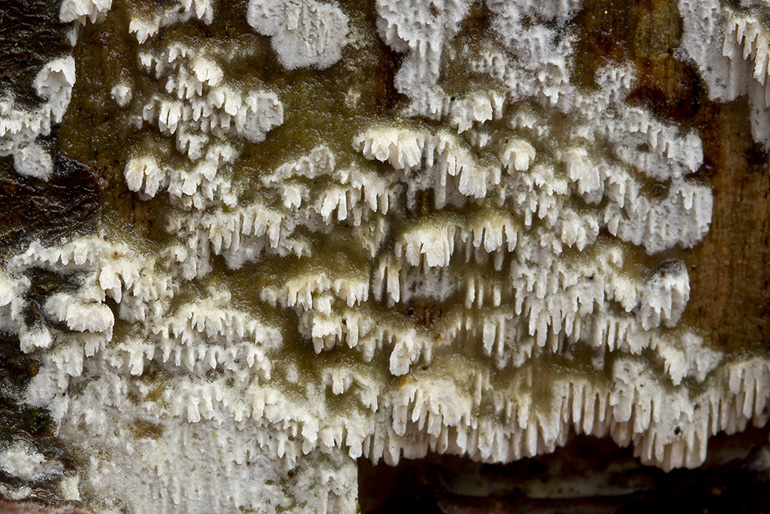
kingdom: Fungi
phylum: Basidiomycota
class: Agaricomycetes
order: Hymenochaetales
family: Schizoporaceae
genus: Schizopora
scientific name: Schizopora paradoxa
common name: hvid tandsvamp
